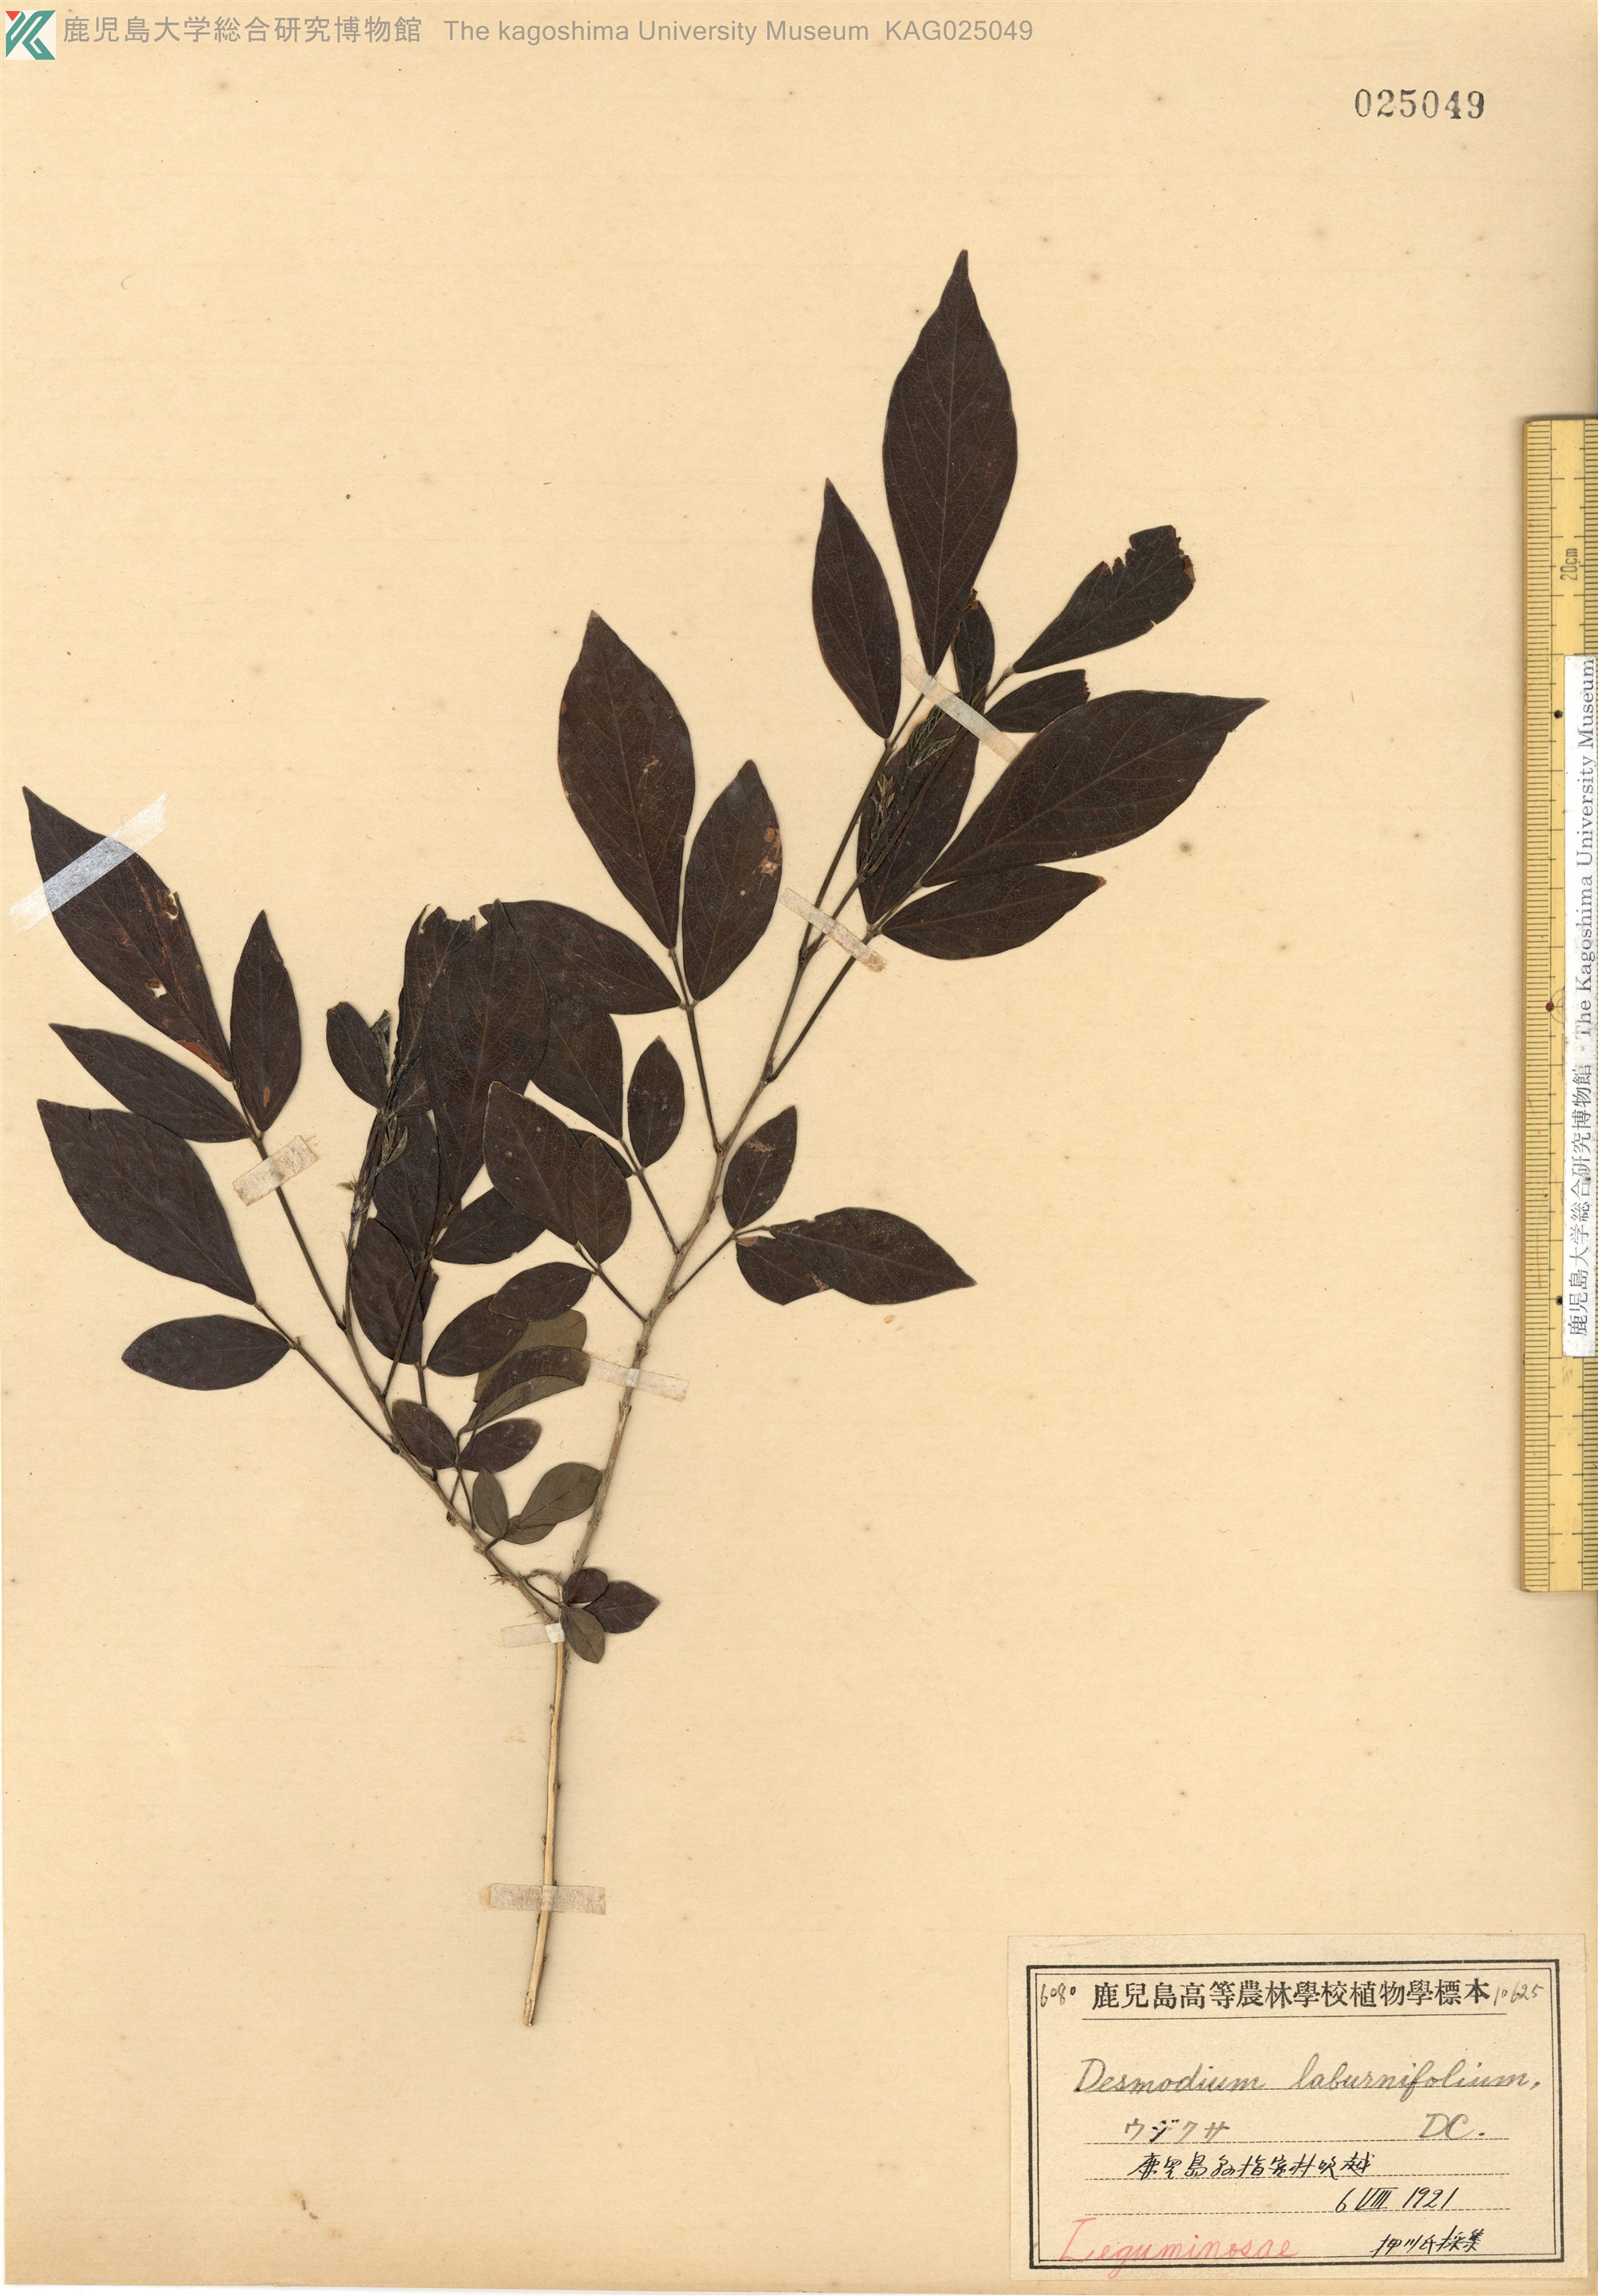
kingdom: Plantae
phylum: Tracheophyta
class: Magnoliopsida
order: Fabales
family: Fabaceae
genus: Ohwia
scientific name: Ohwia caudata
